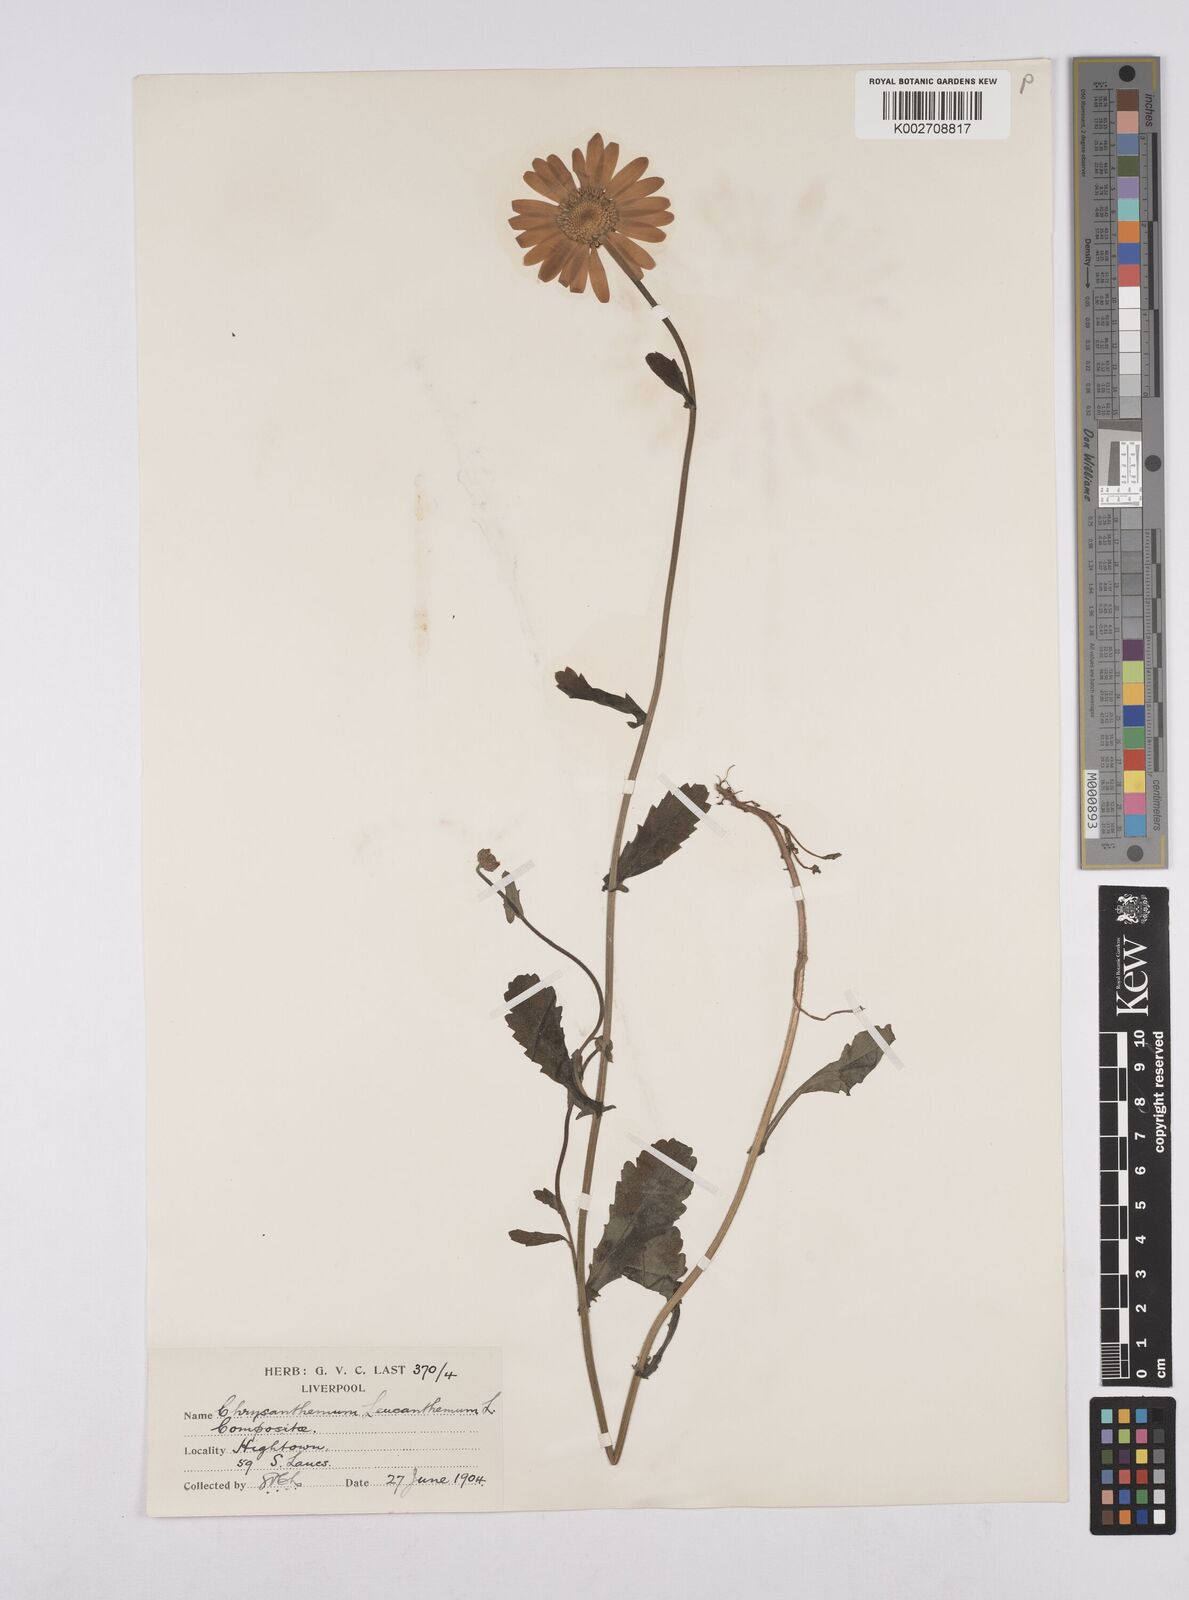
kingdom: Plantae
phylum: Tracheophyta
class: Magnoliopsida
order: Asterales
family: Asteraceae
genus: Leucanthemum
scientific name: Leucanthemum vulgare
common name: Oxeye daisy
